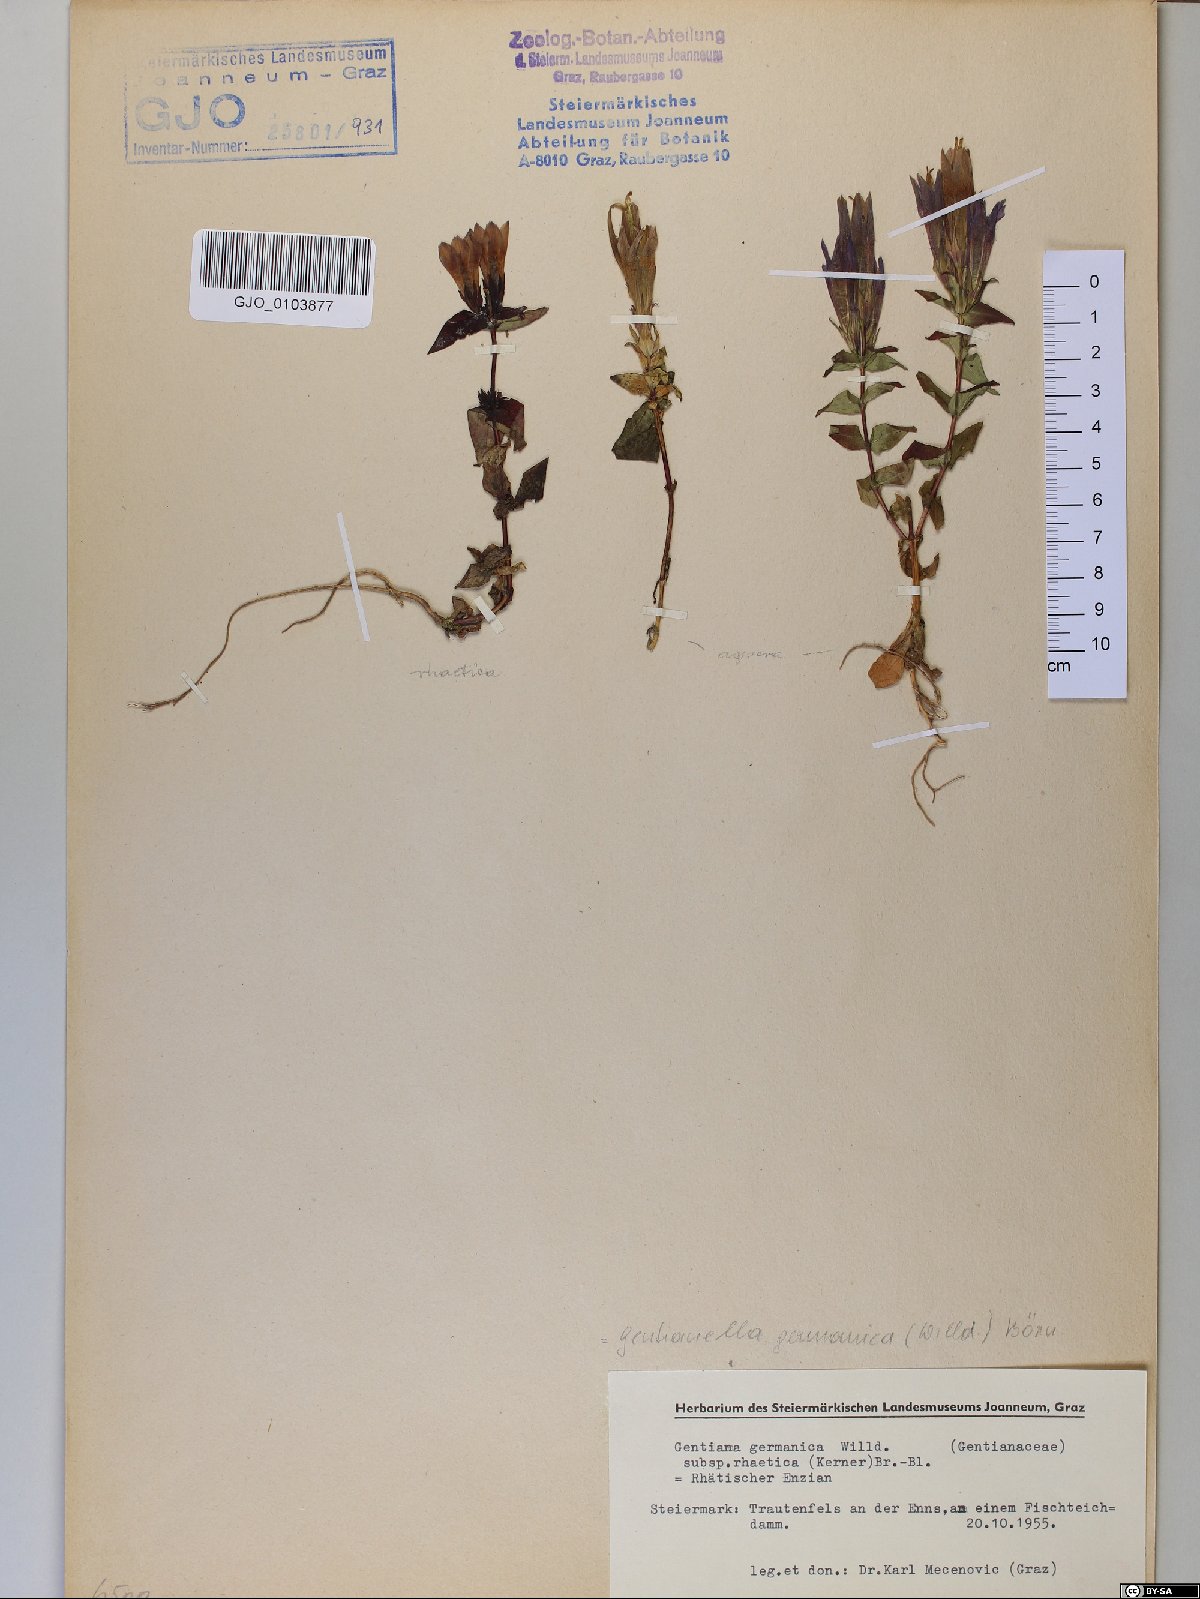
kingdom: Plantae
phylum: Tracheophyta
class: Magnoliopsida
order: Gentianales
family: Gentianaceae
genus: Gentianella
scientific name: Gentianella rhaetica
